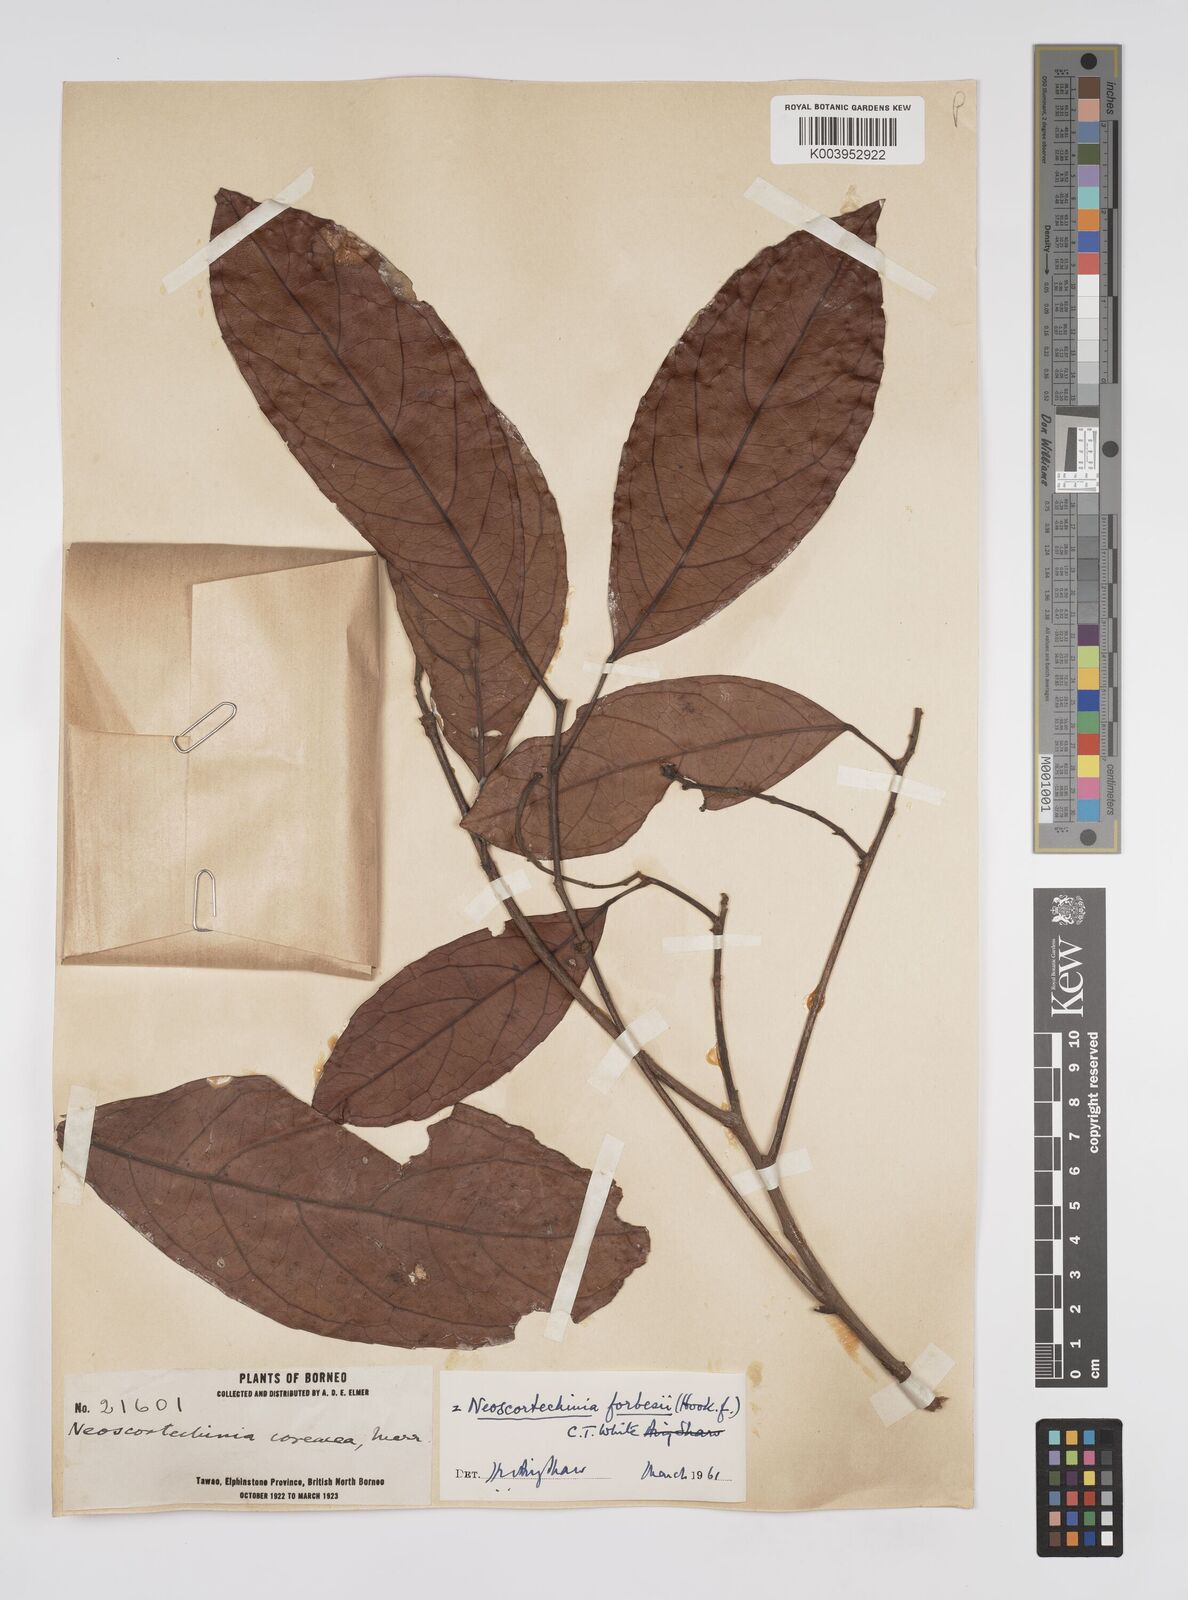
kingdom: Plantae
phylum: Tracheophyta
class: Magnoliopsida
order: Malpighiales
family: Euphorbiaceae
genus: Neoscortechinia
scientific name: Neoscortechinia philippinensis
